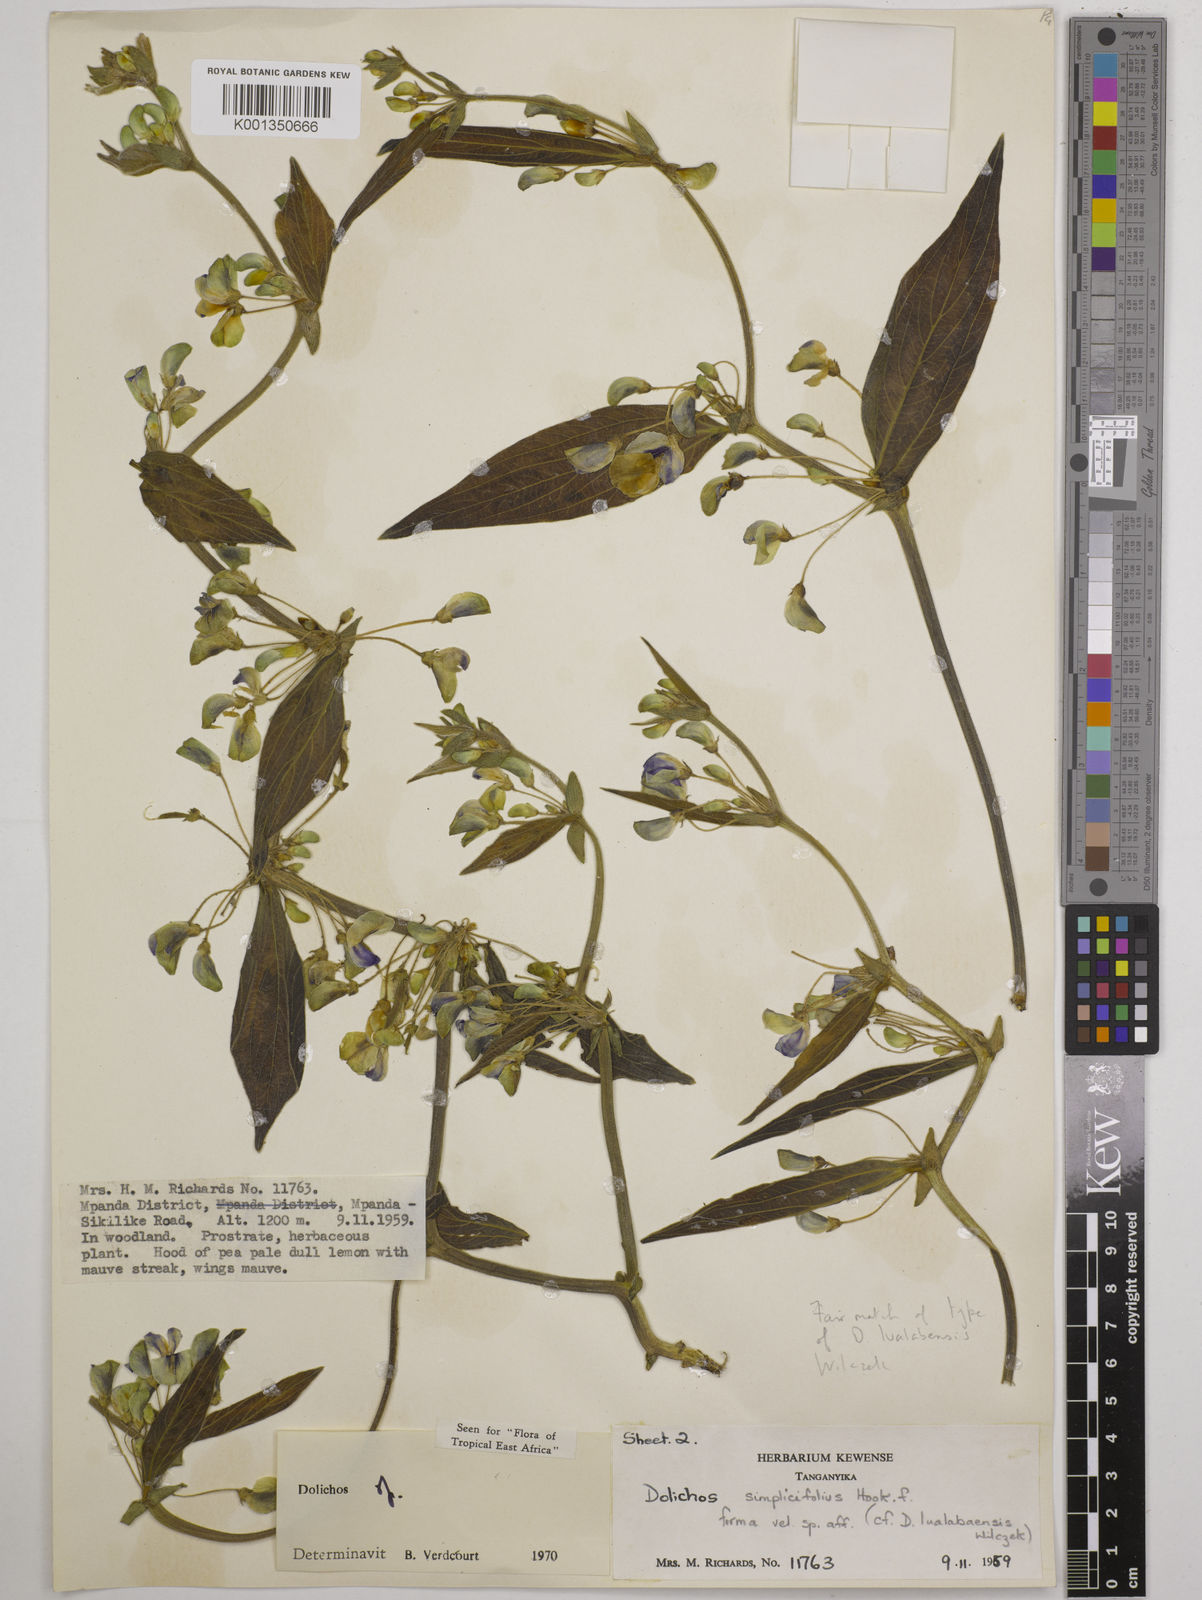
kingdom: Plantae
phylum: Tracheophyta
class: Magnoliopsida
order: Fabales
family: Fabaceae
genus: Dolichos
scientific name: Dolichos simplicifolius
